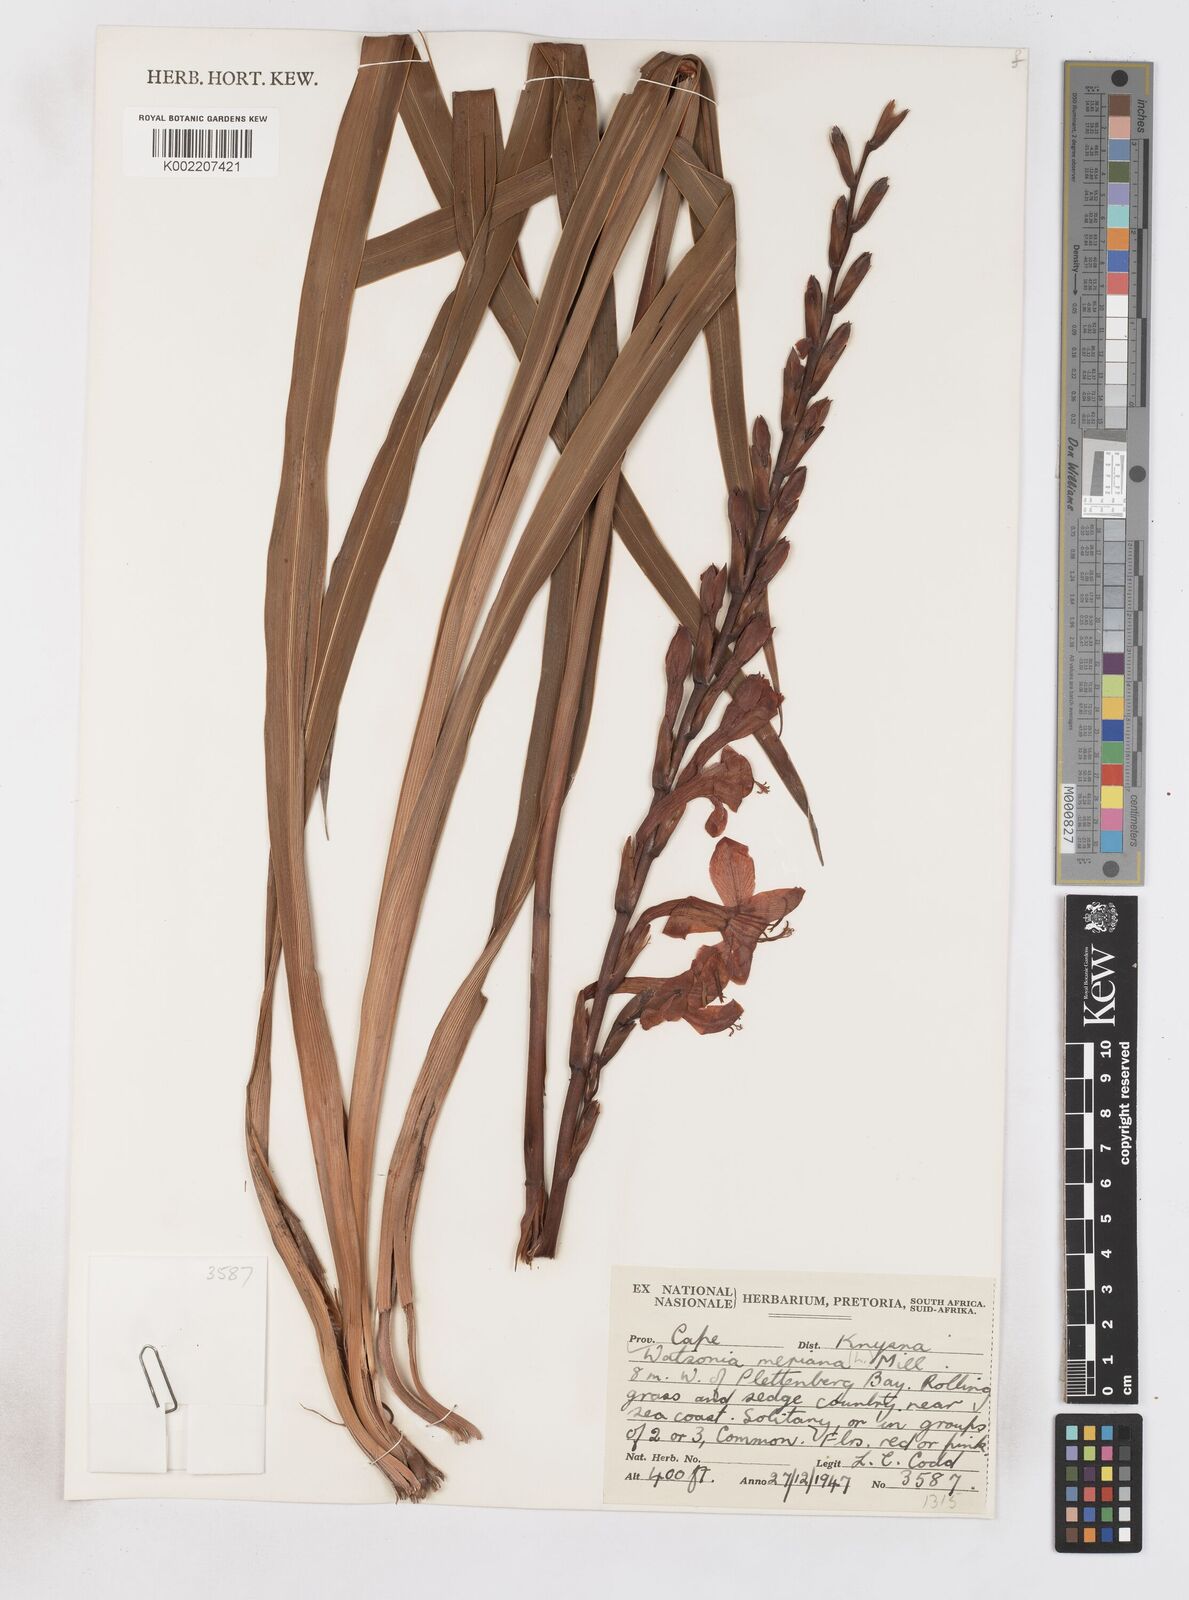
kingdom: Plantae
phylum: Tracheophyta
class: Liliopsida
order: Asparagales
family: Iridaceae
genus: Watsonia
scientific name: Watsonia pillansii
